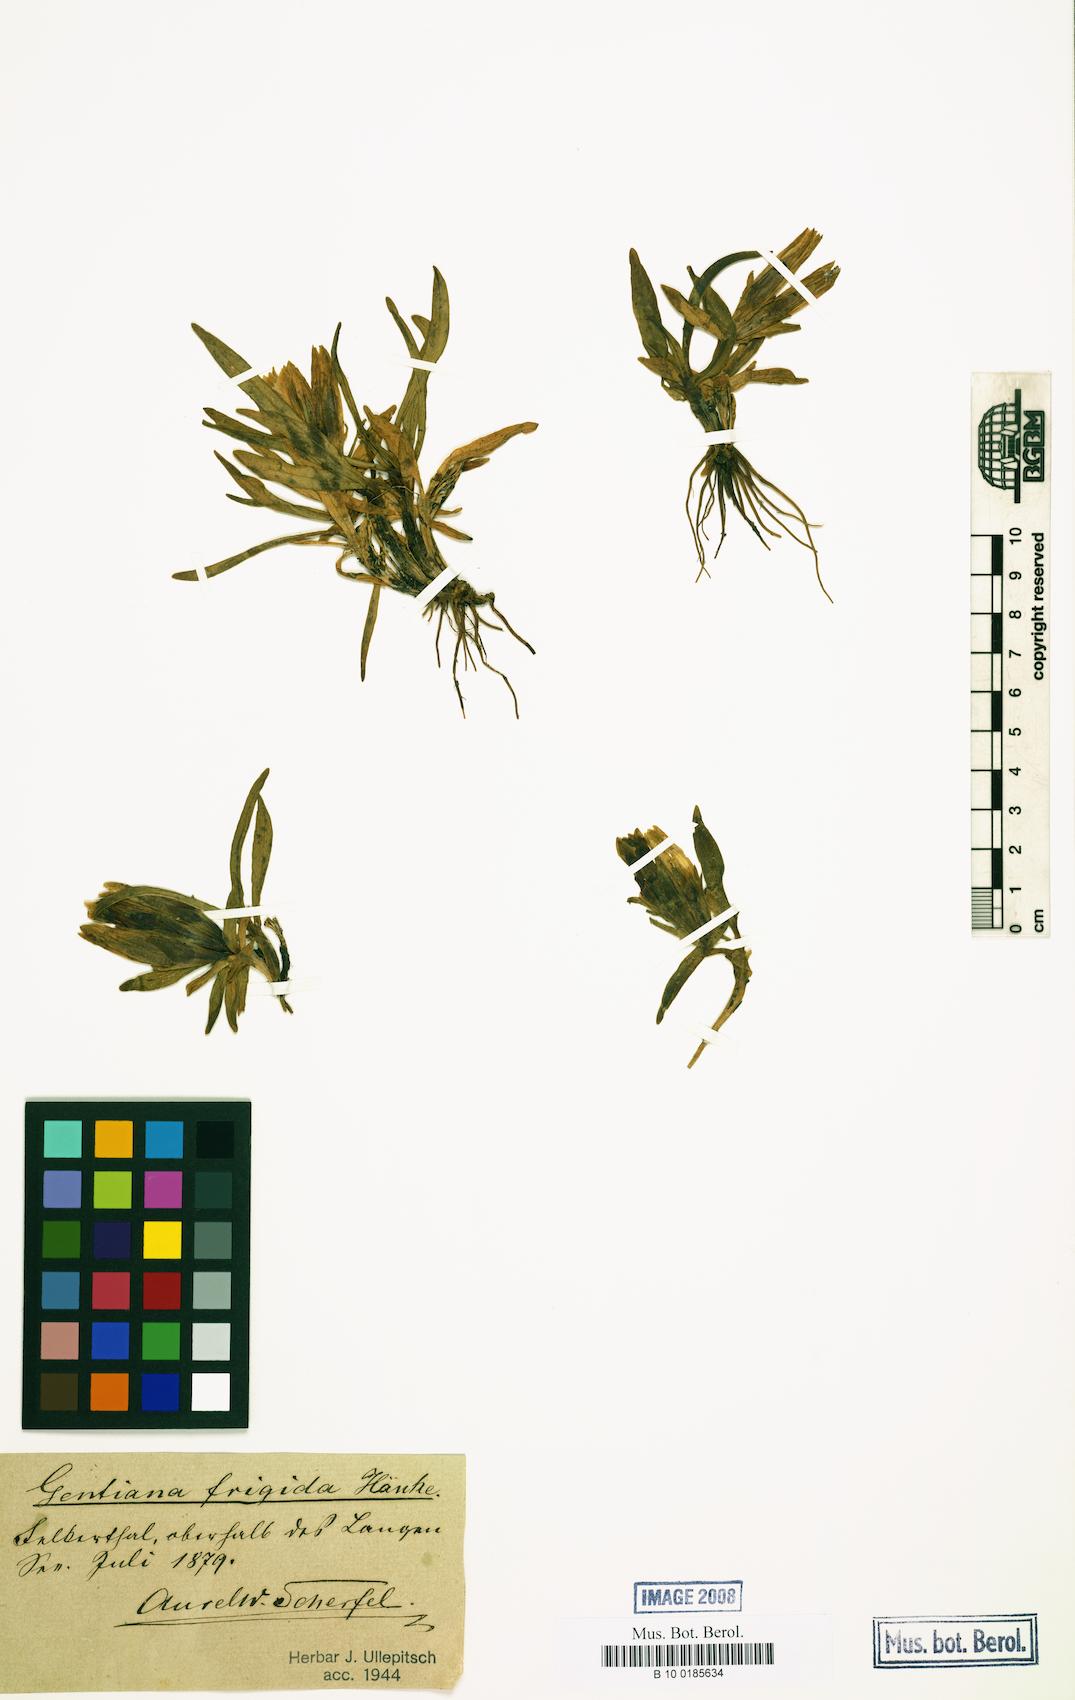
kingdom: Plantae
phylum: Tracheophyta
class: Magnoliopsida
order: Gentianales
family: Gentianaceae
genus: Gentiana
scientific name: Gentiana frigida
